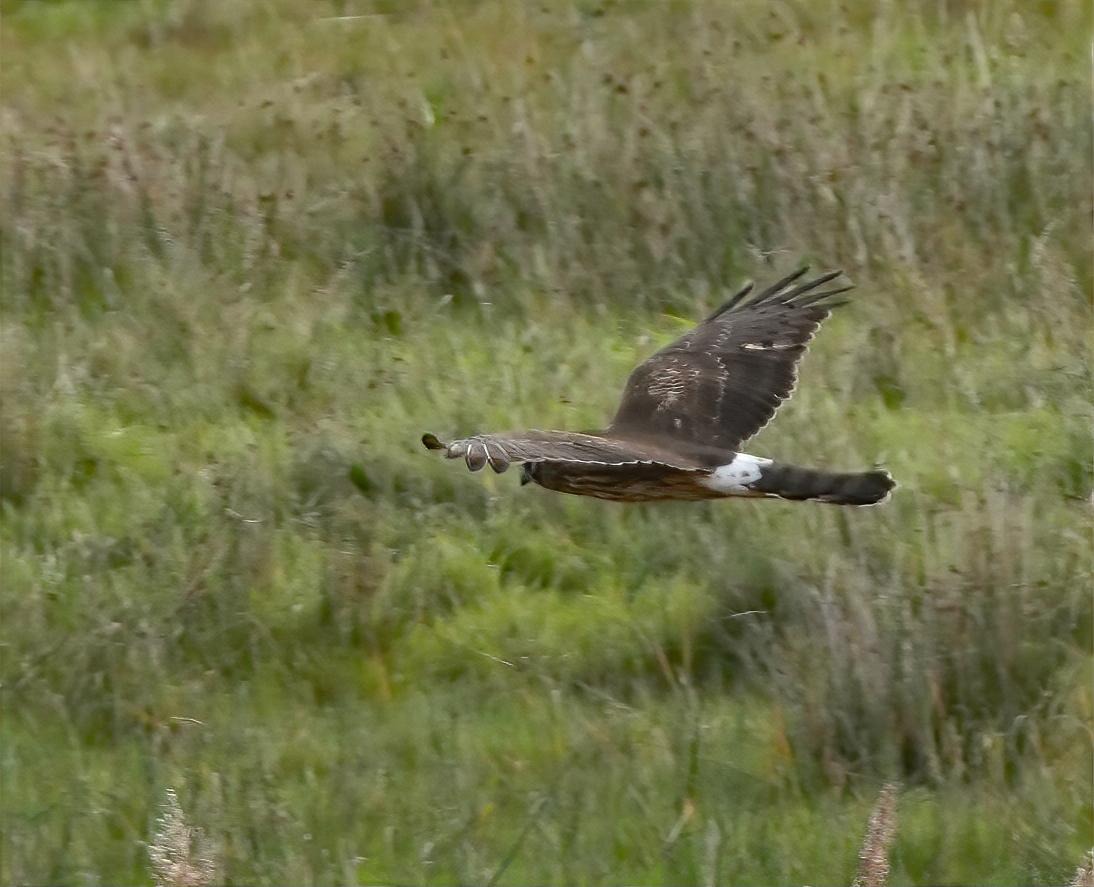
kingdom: Animalia
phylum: Chordata
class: Aves
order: Accipitriformes
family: Accipitridae
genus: Circus
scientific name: Circus cyaneus
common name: Blå kærhøg
